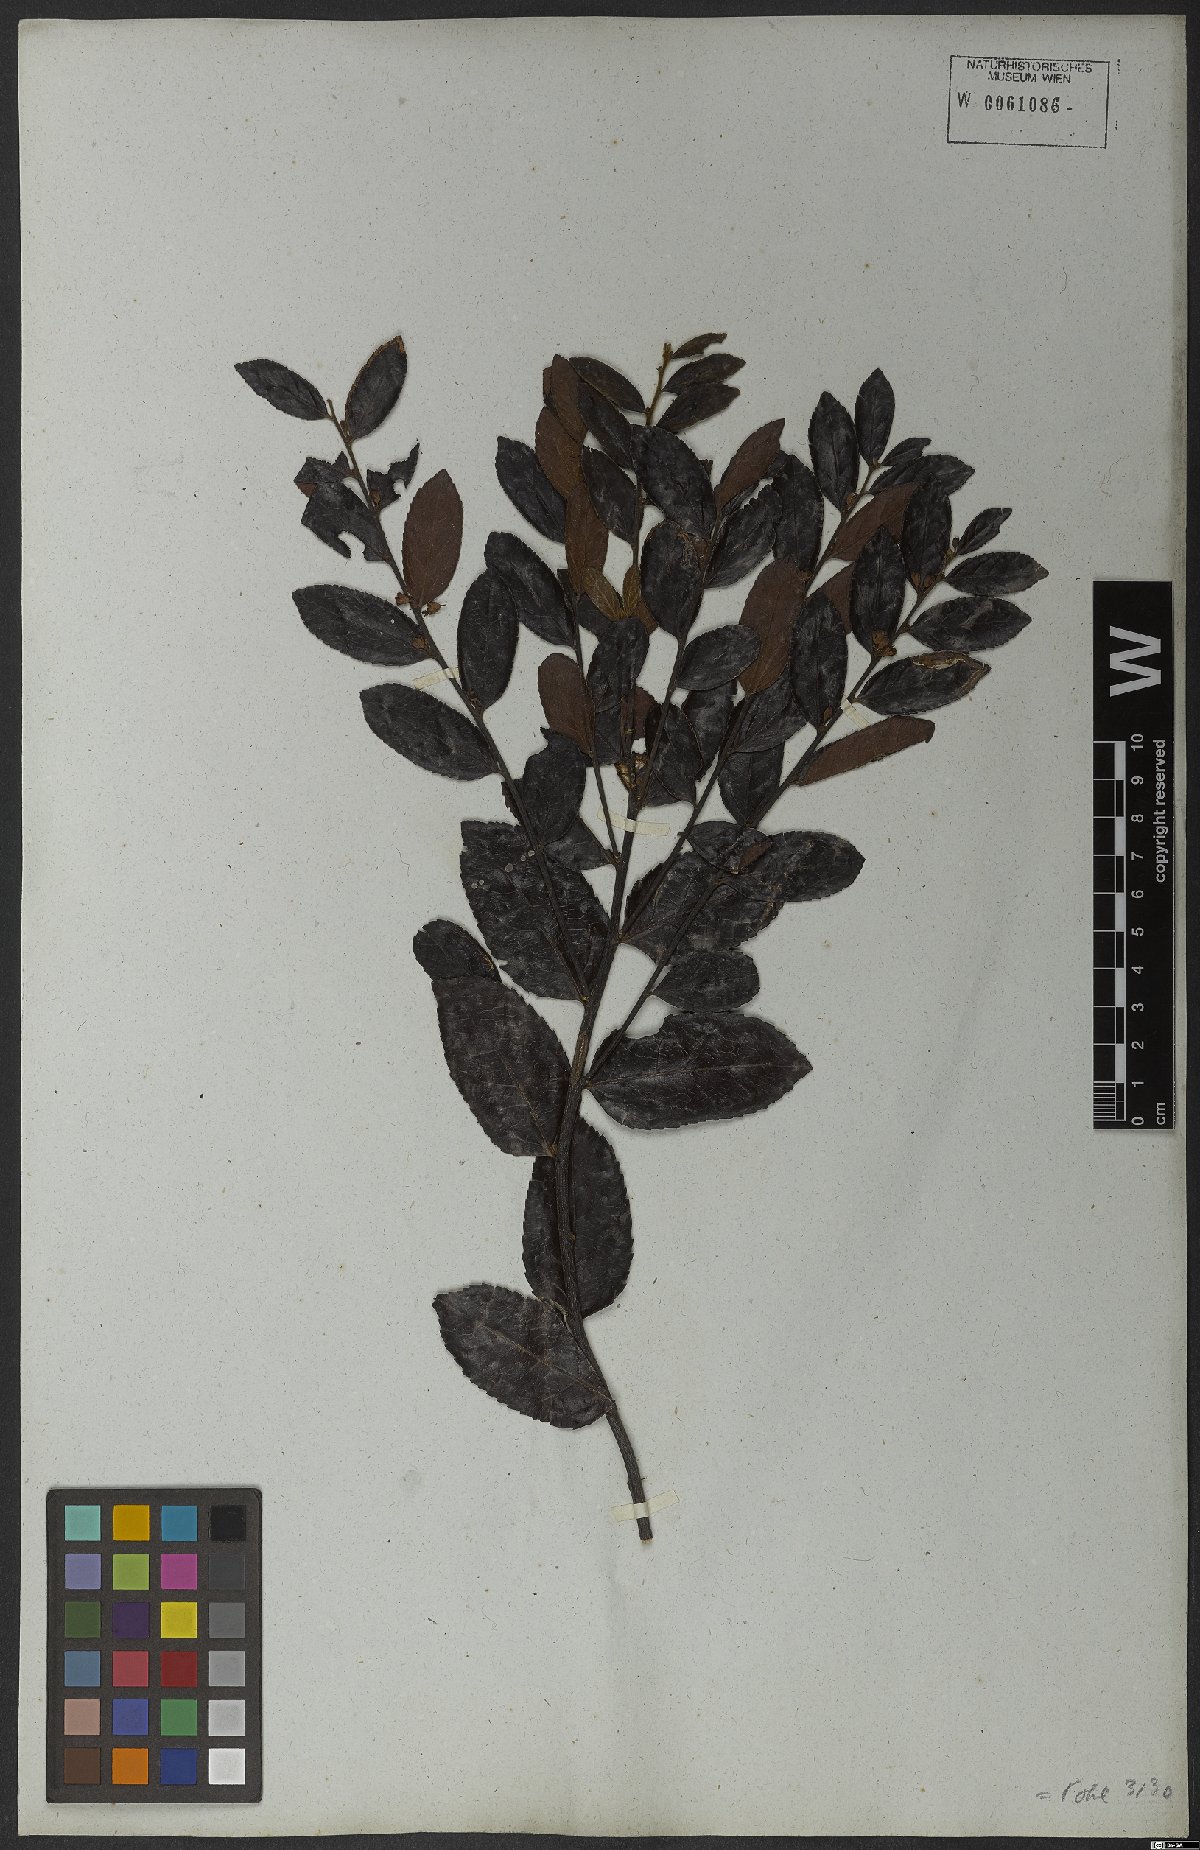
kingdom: Plantae
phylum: Tracheophyta
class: Magnoliopsida
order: Malpighiales
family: Salicaceae
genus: Casearia
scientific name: Casearia rufescens
